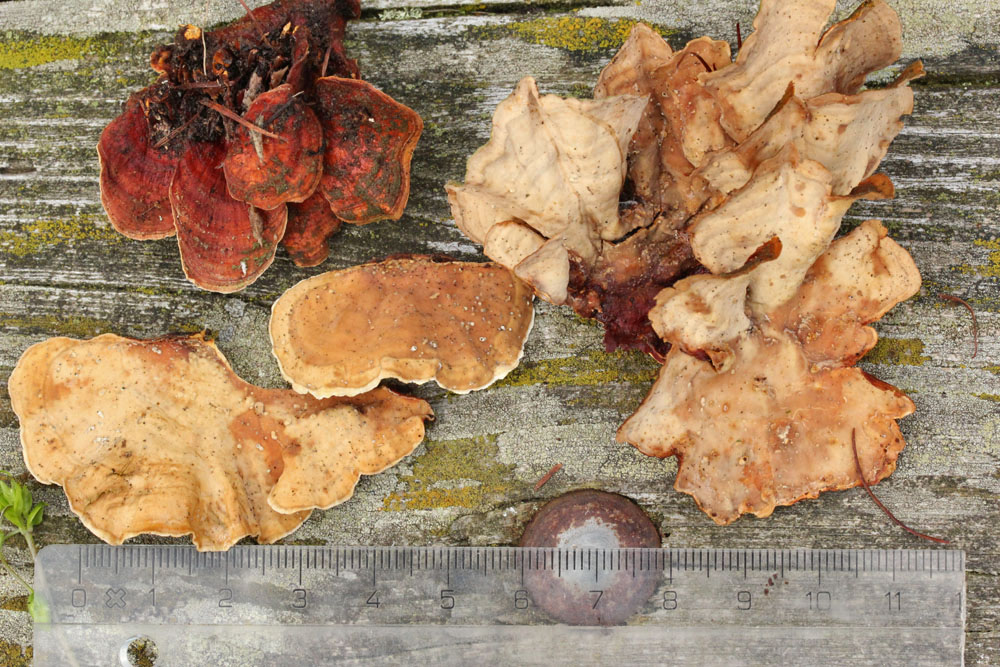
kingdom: Fungi
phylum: Basidiomycota
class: Agaricomycetes
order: Russulales
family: Stereaceae
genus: Stereum
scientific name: Stereum hirsutum
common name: håret lædersvamp
